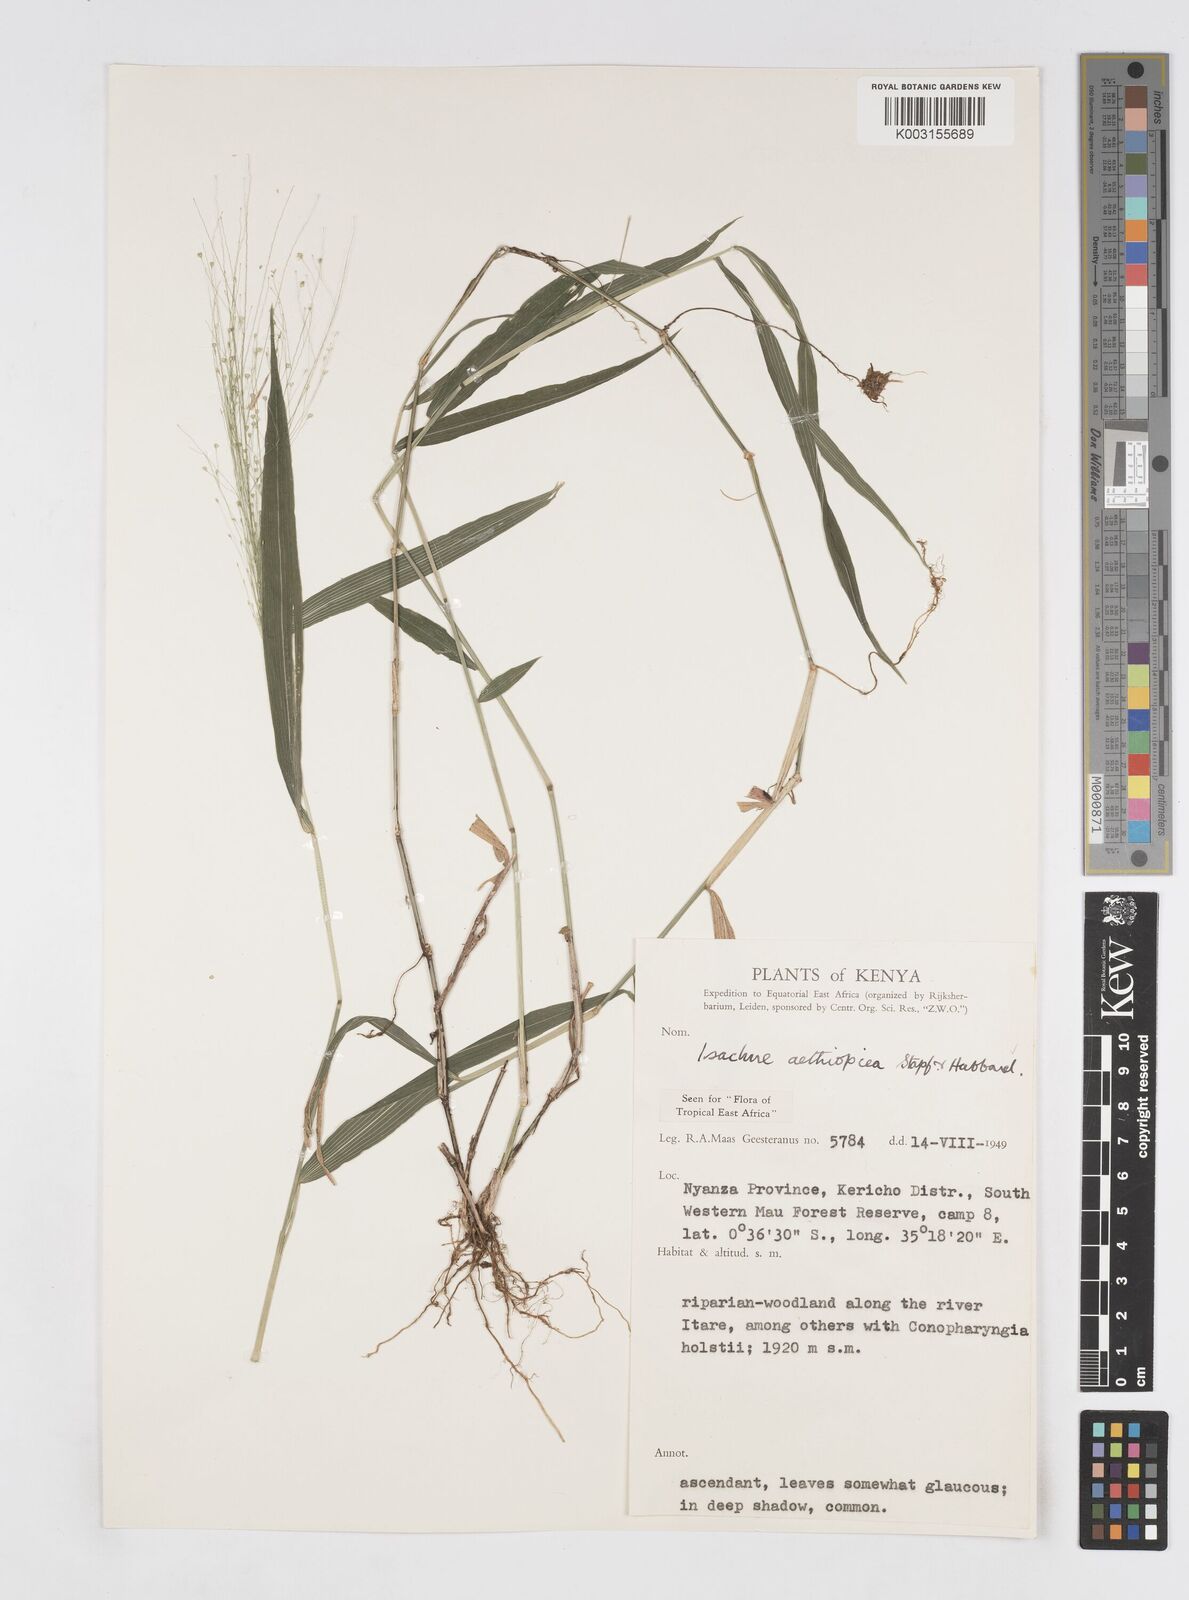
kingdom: Plantae
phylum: Tracheophyta
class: Liliopsida
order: Poales
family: Poaceae
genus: Isachne
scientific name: Isachne mauritiana
